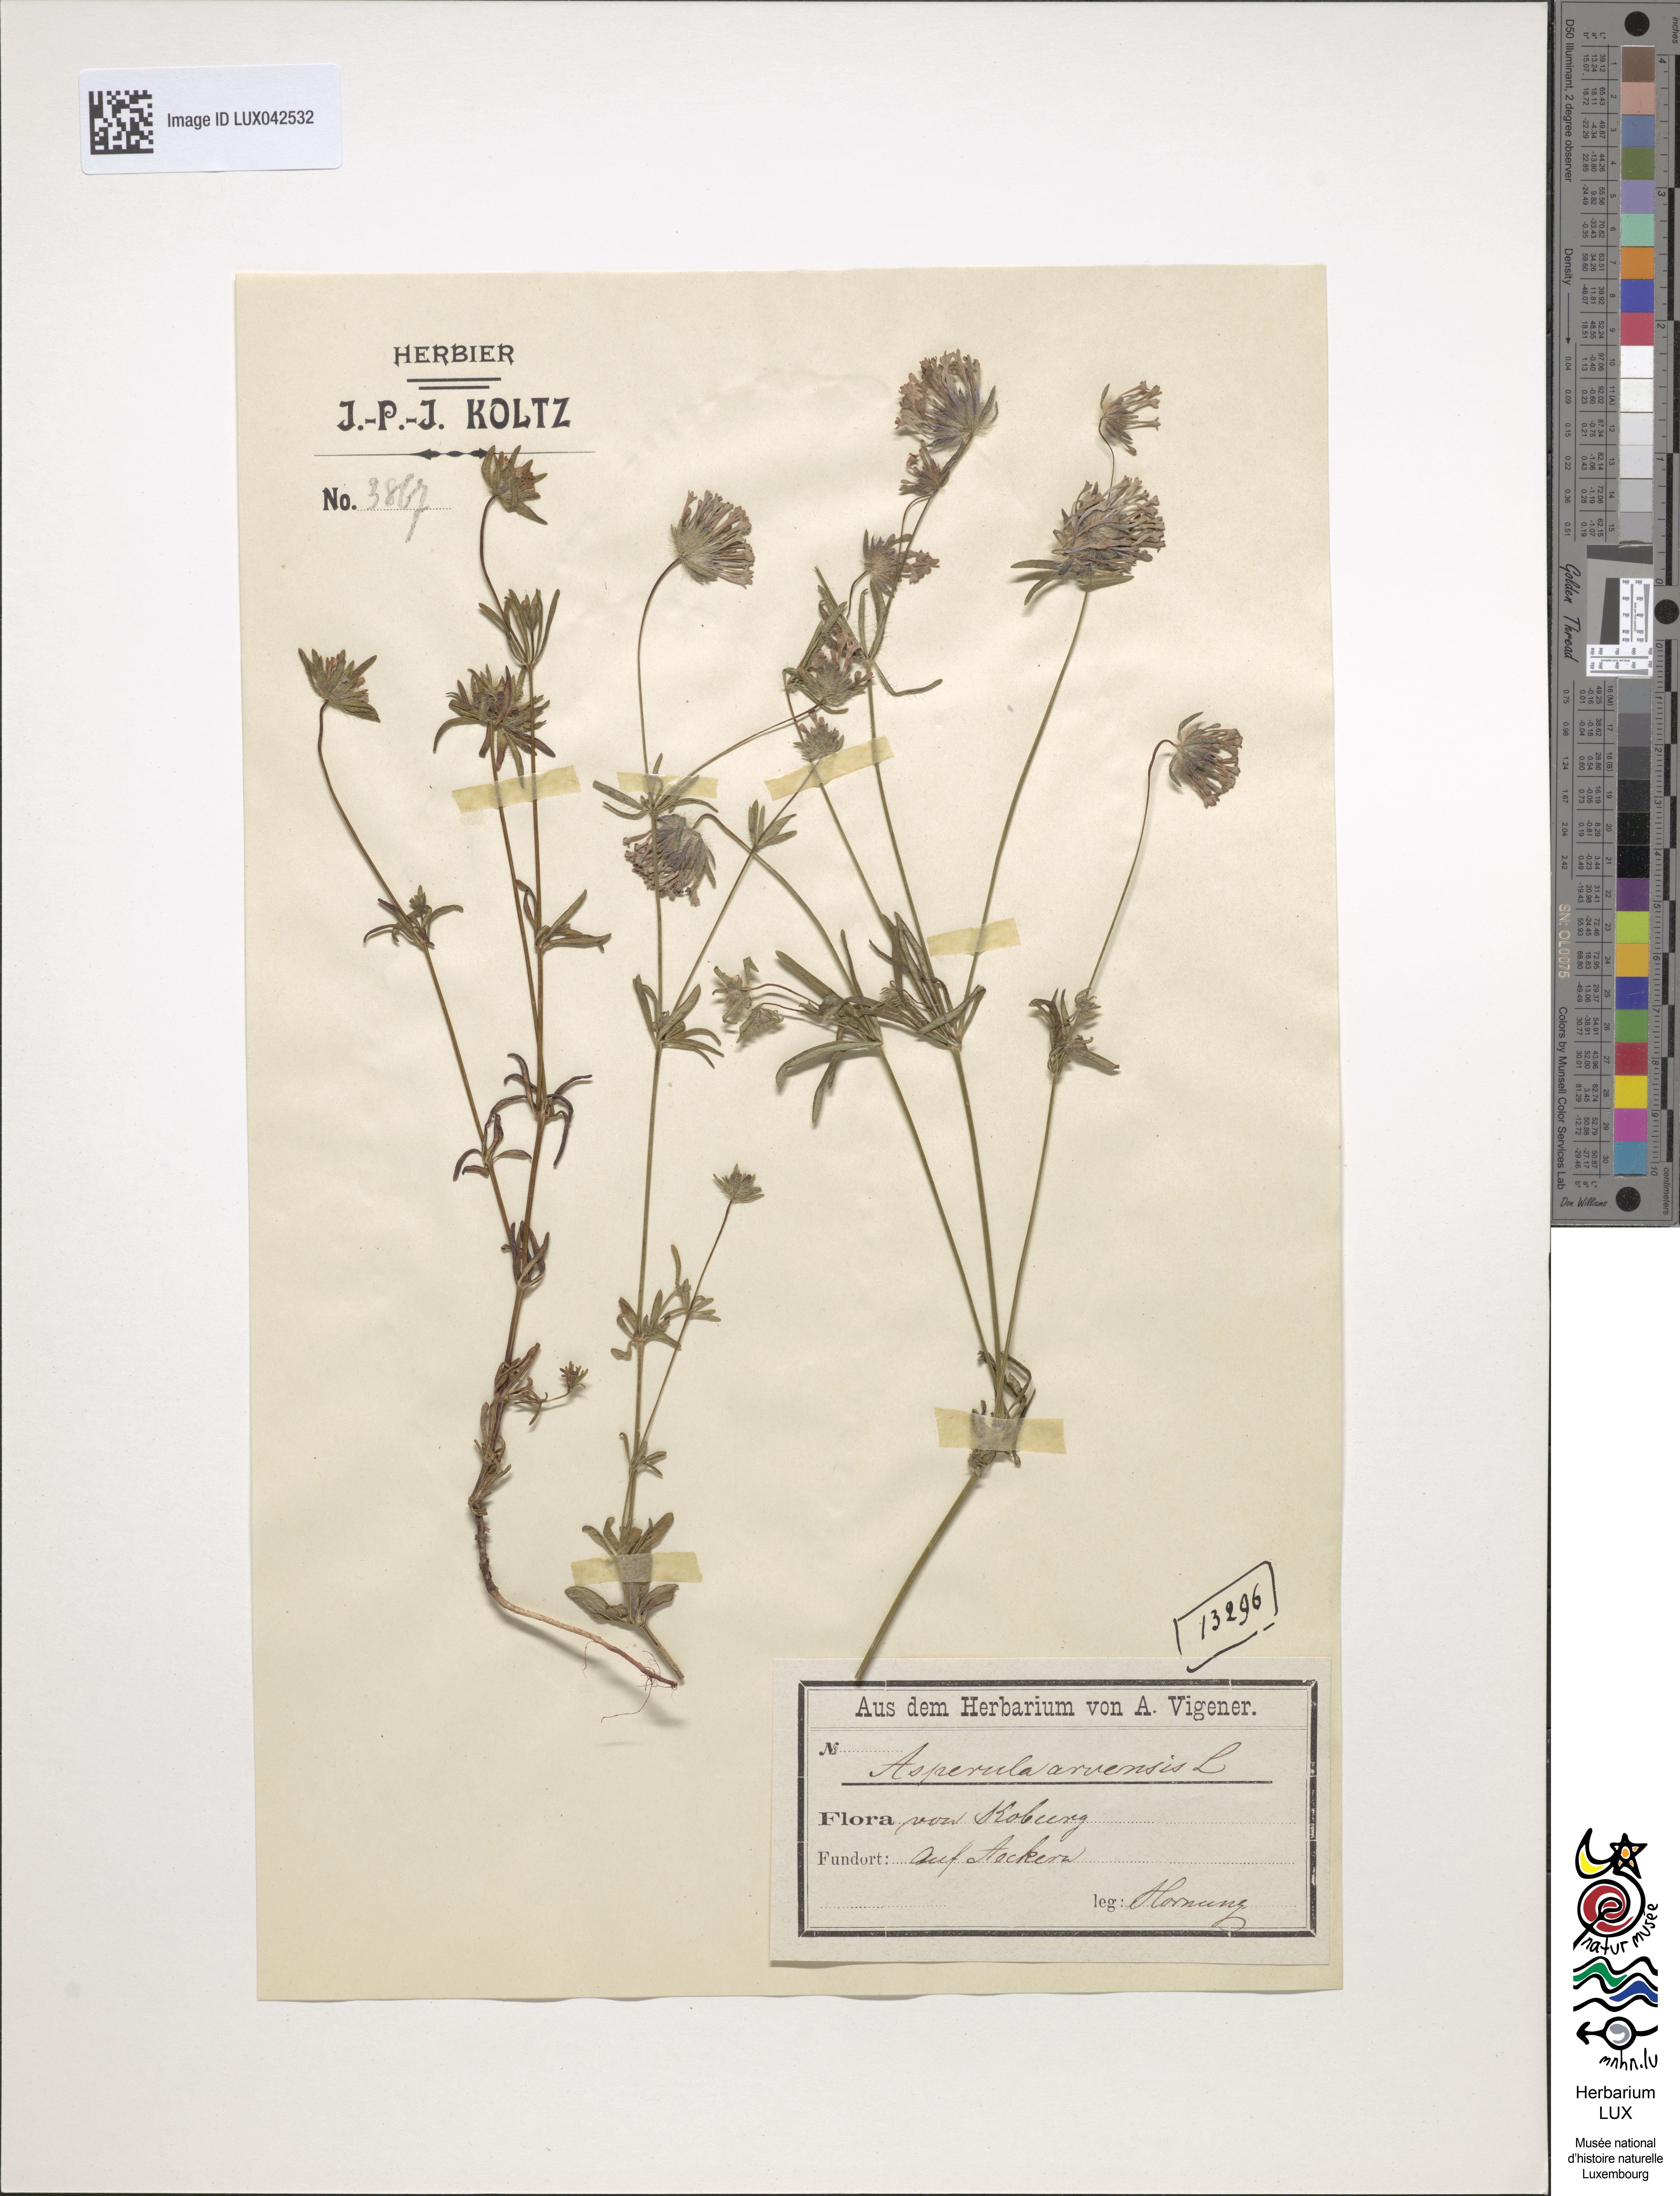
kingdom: Plantae
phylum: Tracheophyta
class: Magnoliopsida
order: Gentianales
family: Rubiaceae
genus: Asperula
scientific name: Asperula arvensis
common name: Blue woodruff
